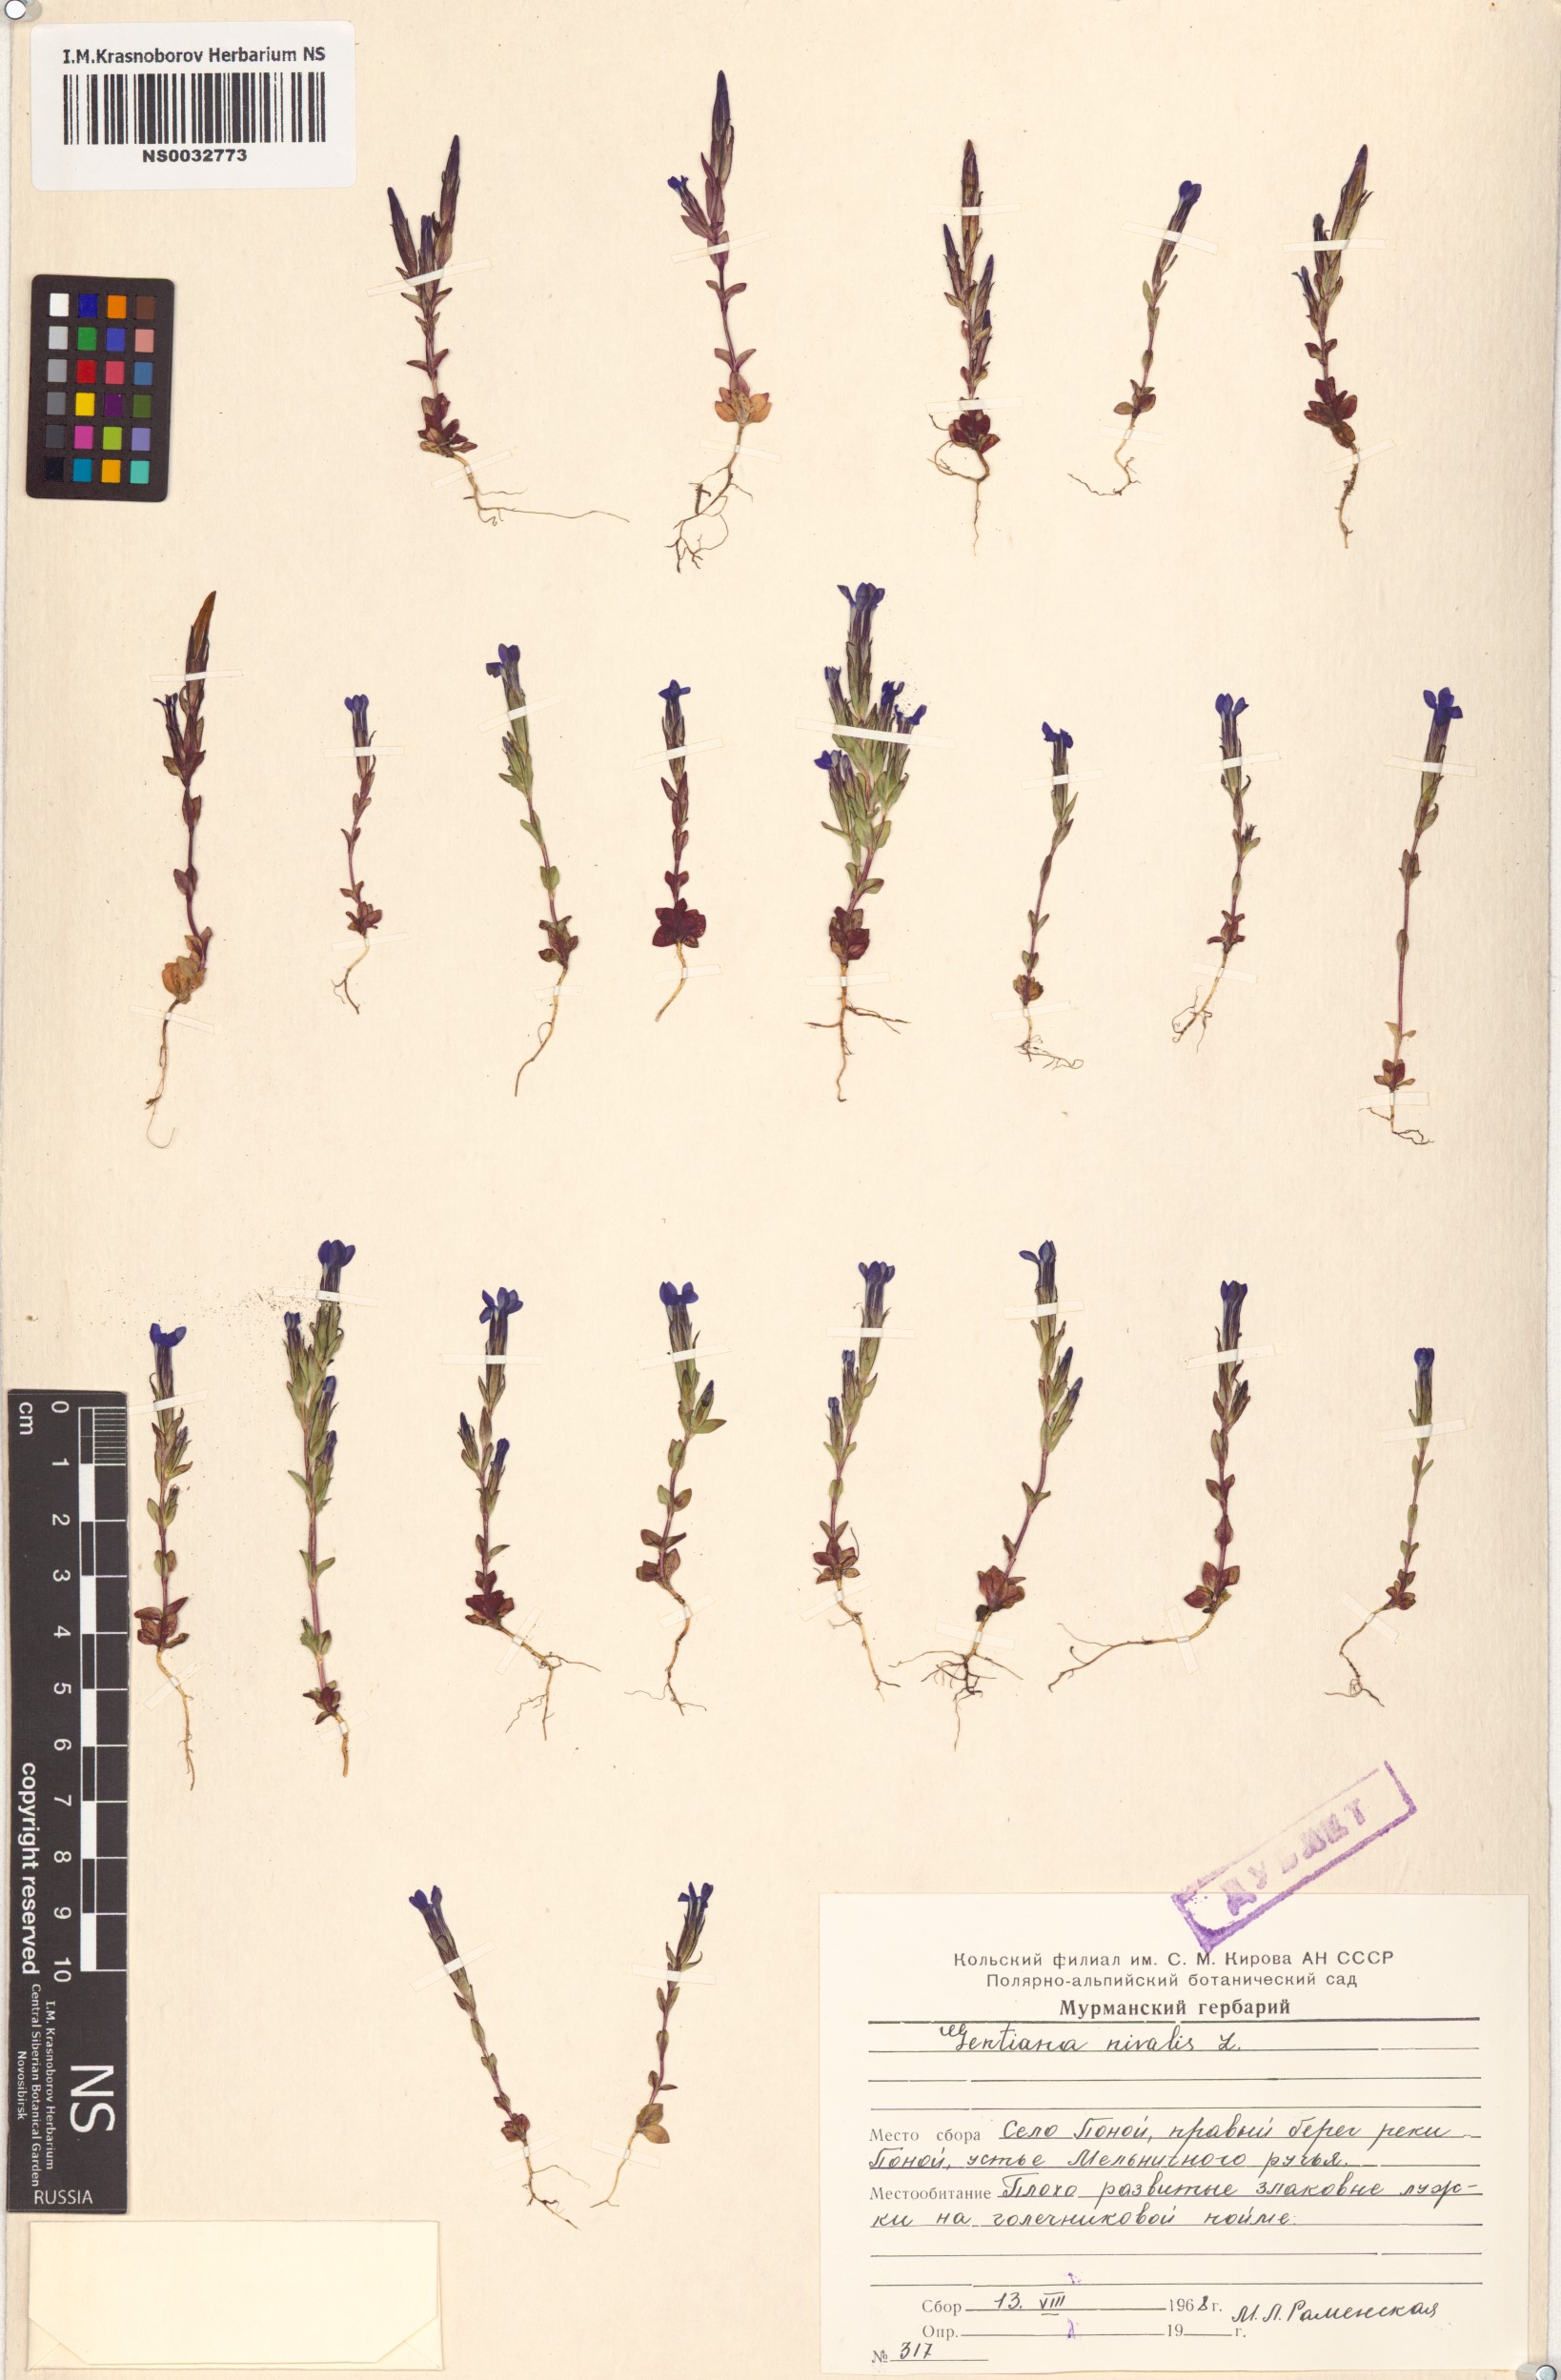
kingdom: Plantae
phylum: Tracheophyta
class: Magnoliopsida
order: Gentianales
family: Gentianaceae
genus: Gentiana
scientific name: Gentiana nivalis
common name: Alpine gentian
